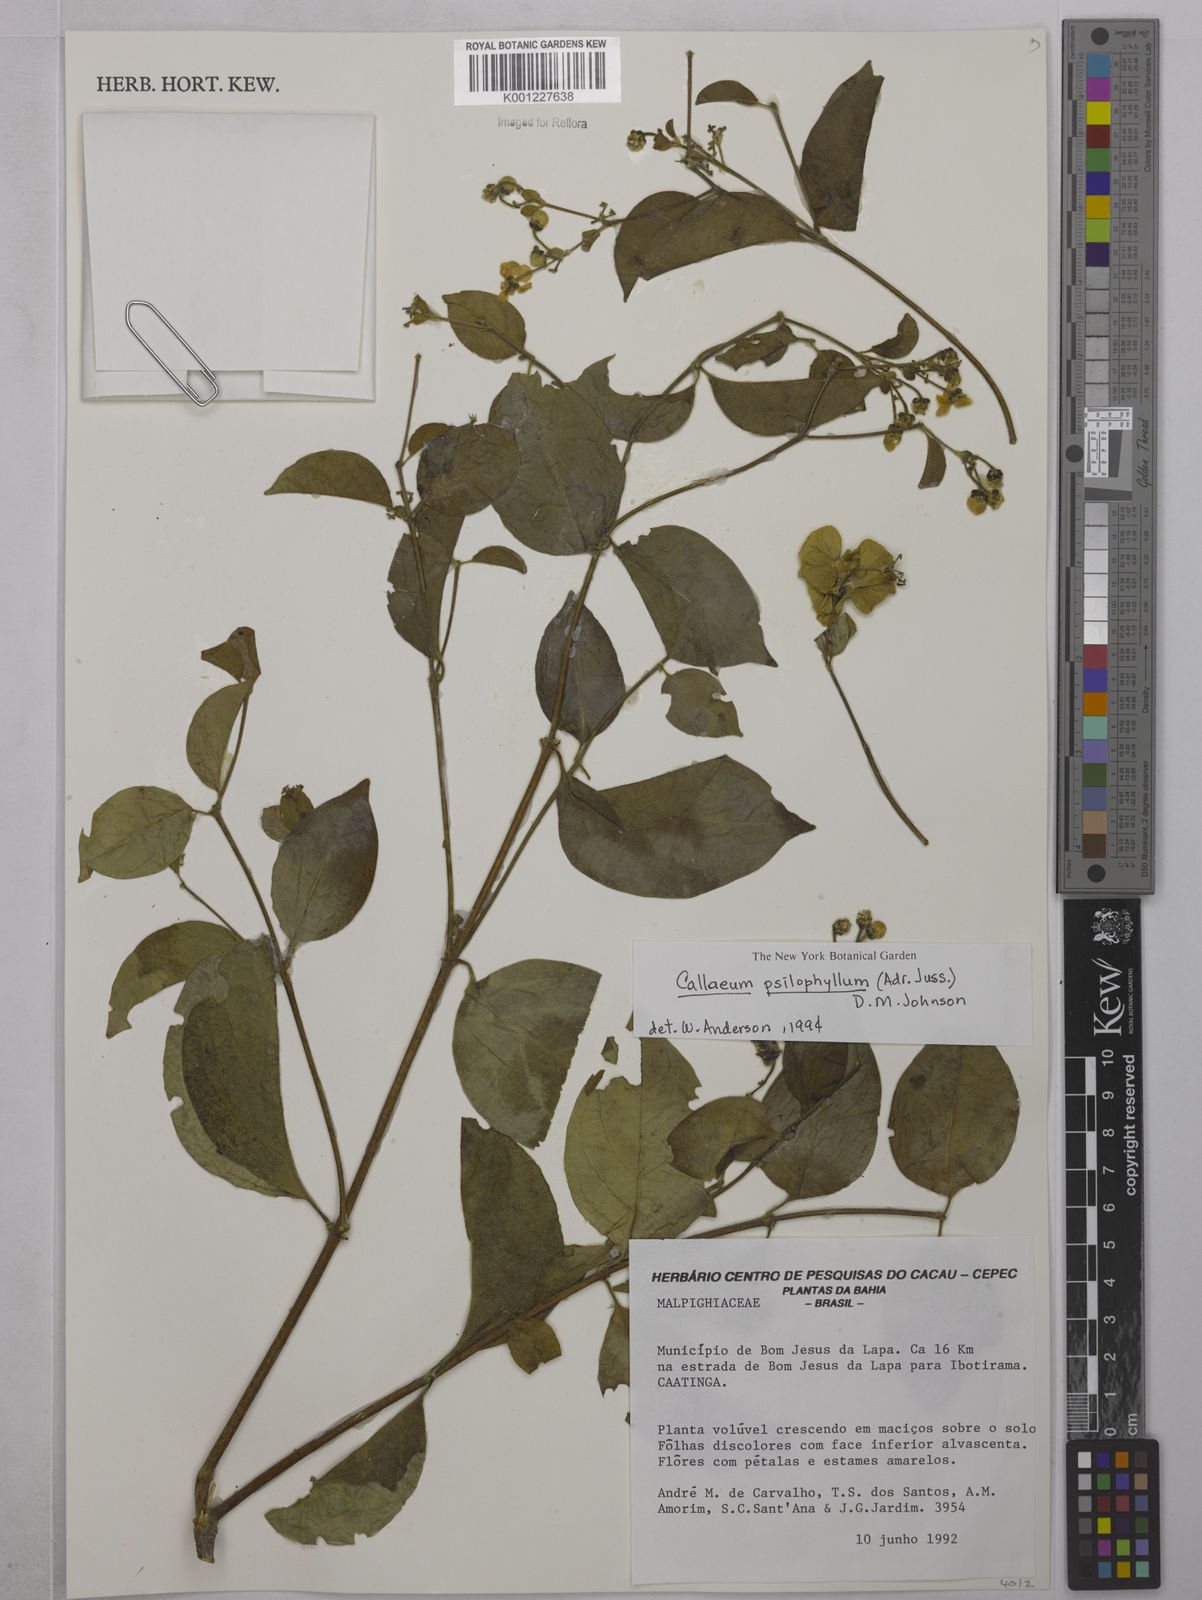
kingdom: Plantae
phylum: Tracheophyta
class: Magnoliopsida
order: Malpighiales
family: Malpighiaceae
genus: Callaeum
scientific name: Callaeum psilophyllum
